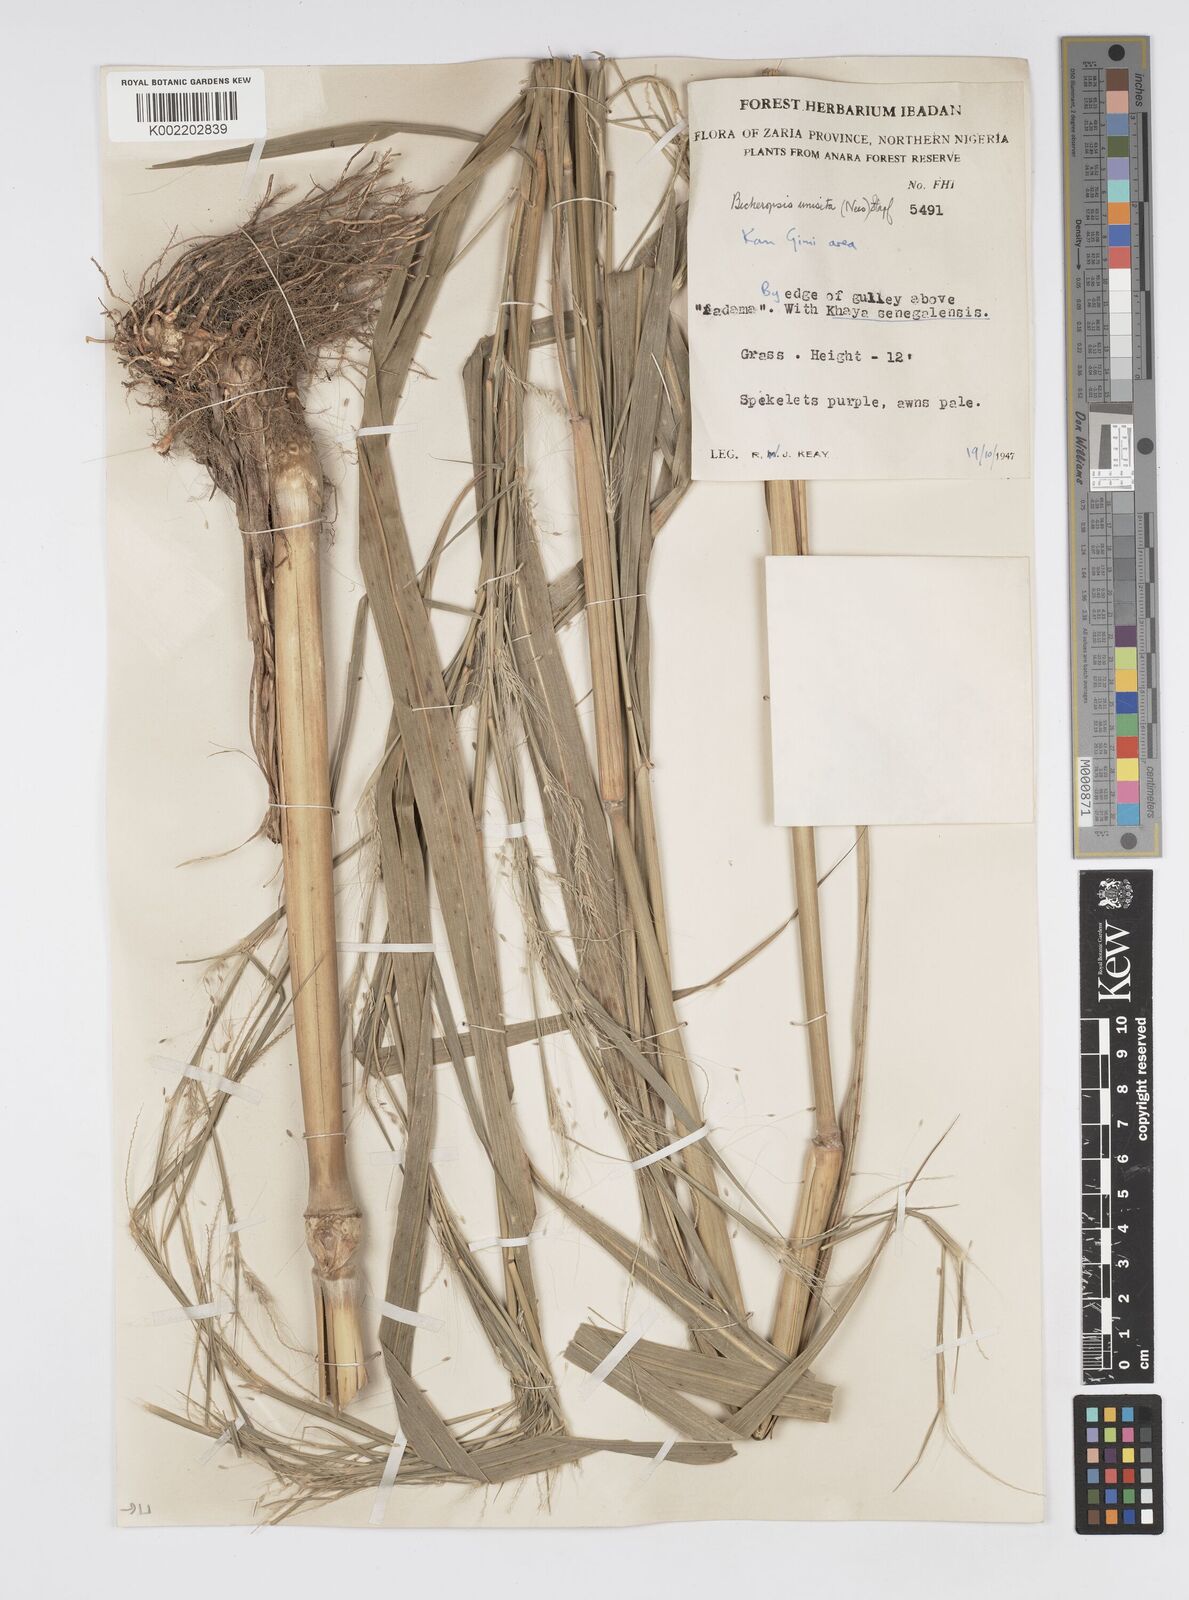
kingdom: Plantae
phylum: Tracheophyta
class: Liliopsida
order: Poales
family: Poaceae
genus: Cenchrus
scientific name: Cenchrus unisetus
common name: Natal grass
